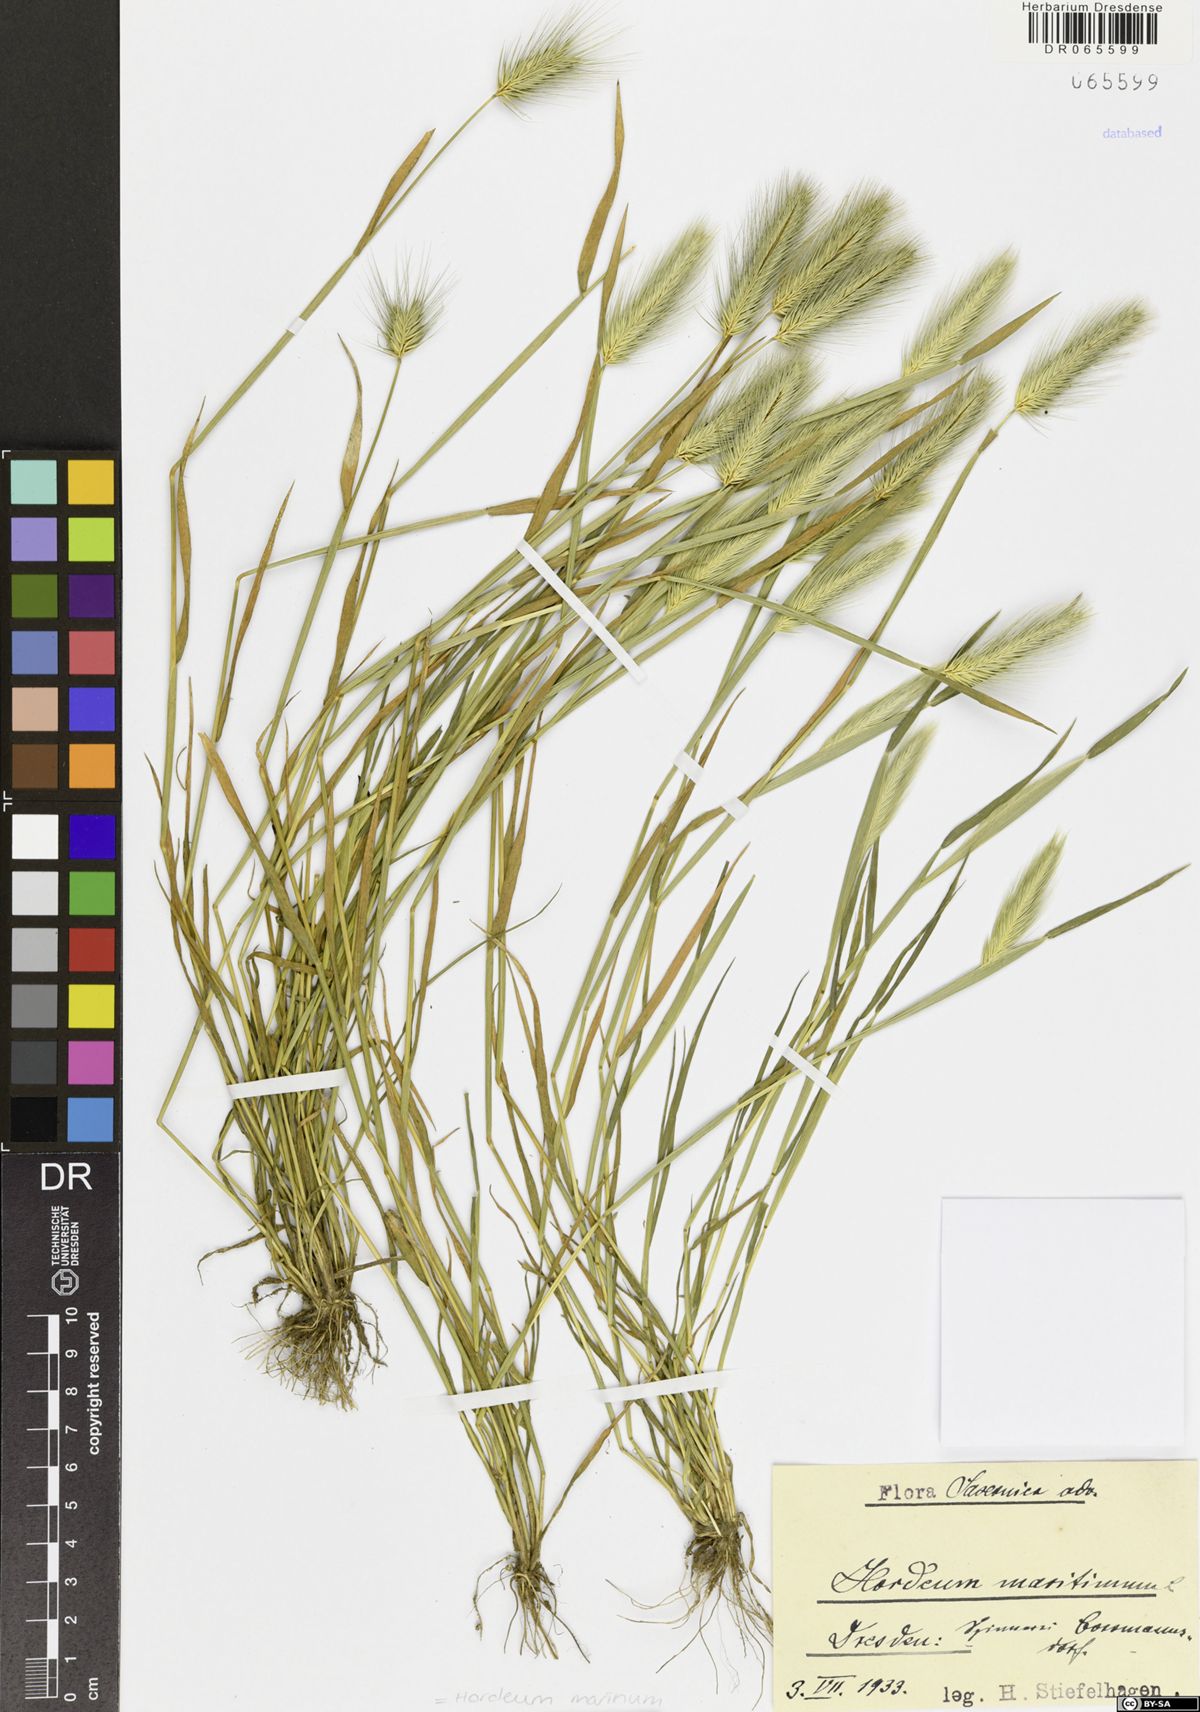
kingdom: Plantae
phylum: Tracheophyta
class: Liliopsida
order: Poales
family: Poaceae
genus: Hordeum
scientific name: Hordeum marinum
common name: Sea barley
